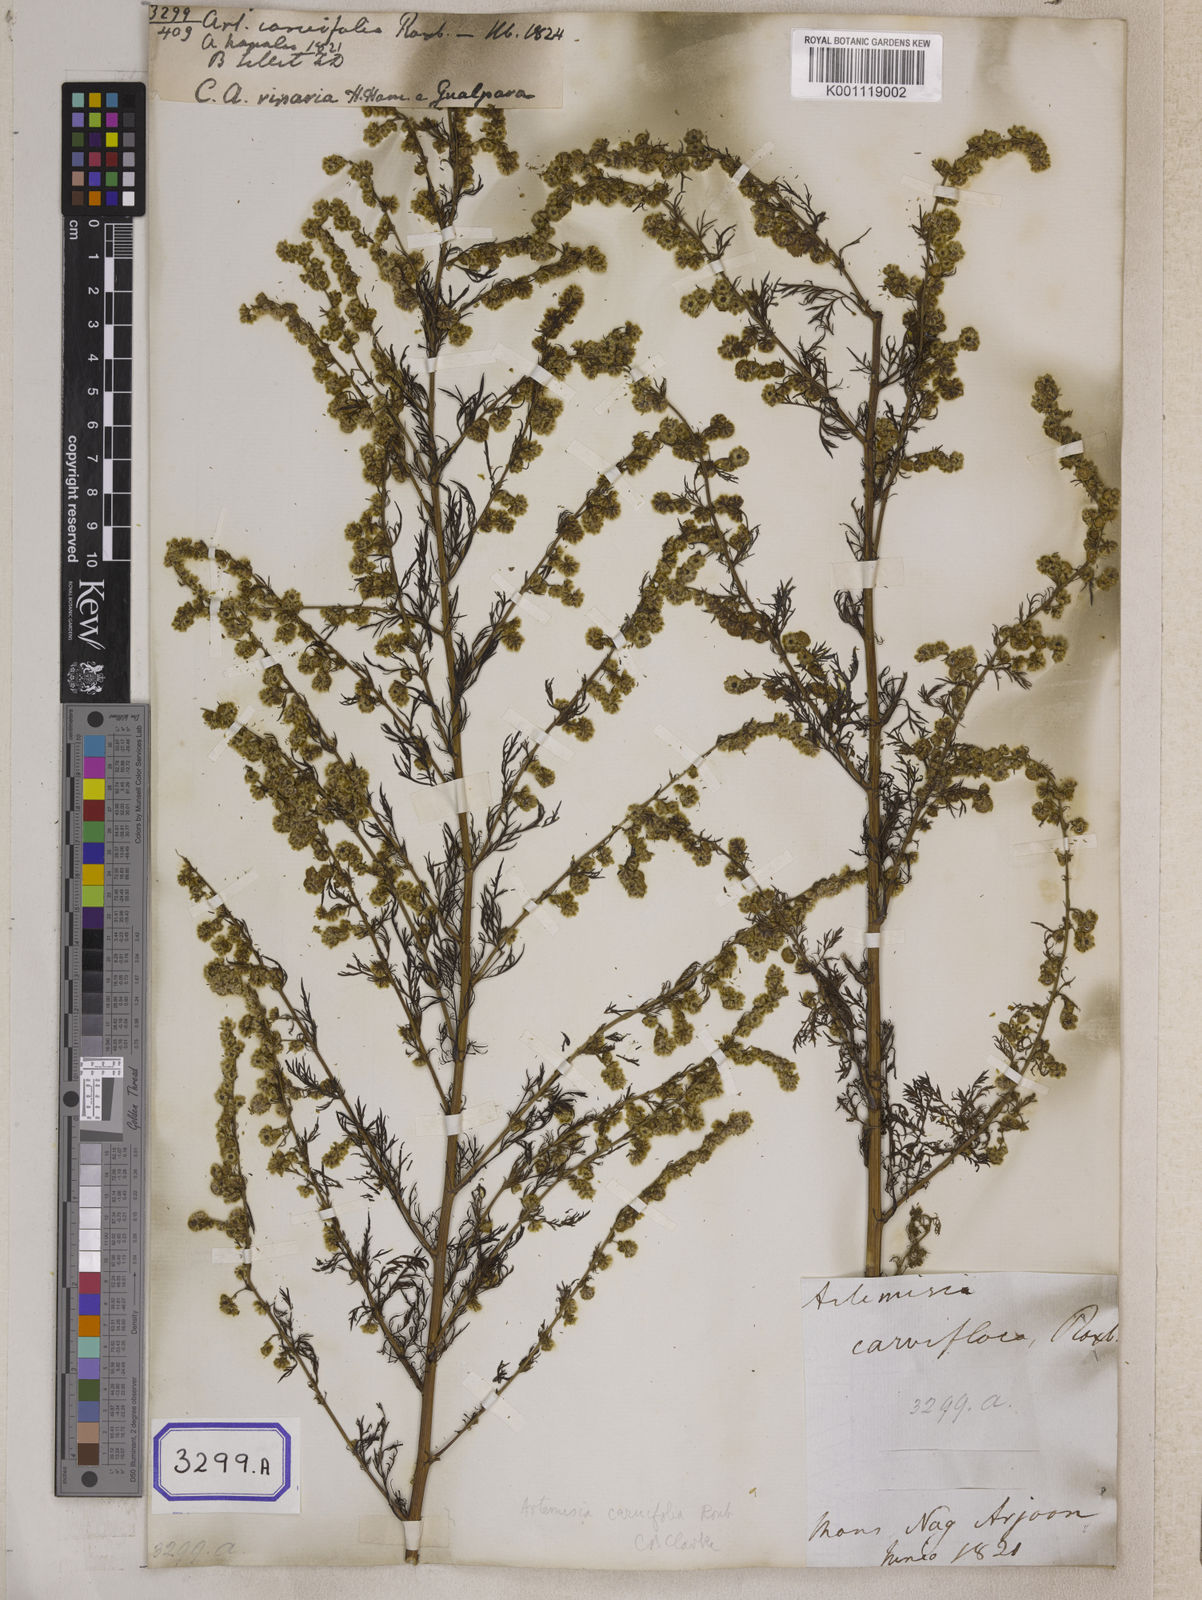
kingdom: Plantae
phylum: Tracheophyta
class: Magnoliopsida
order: Asterales
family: Asteraceae
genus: Artemisia
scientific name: Artemisia
